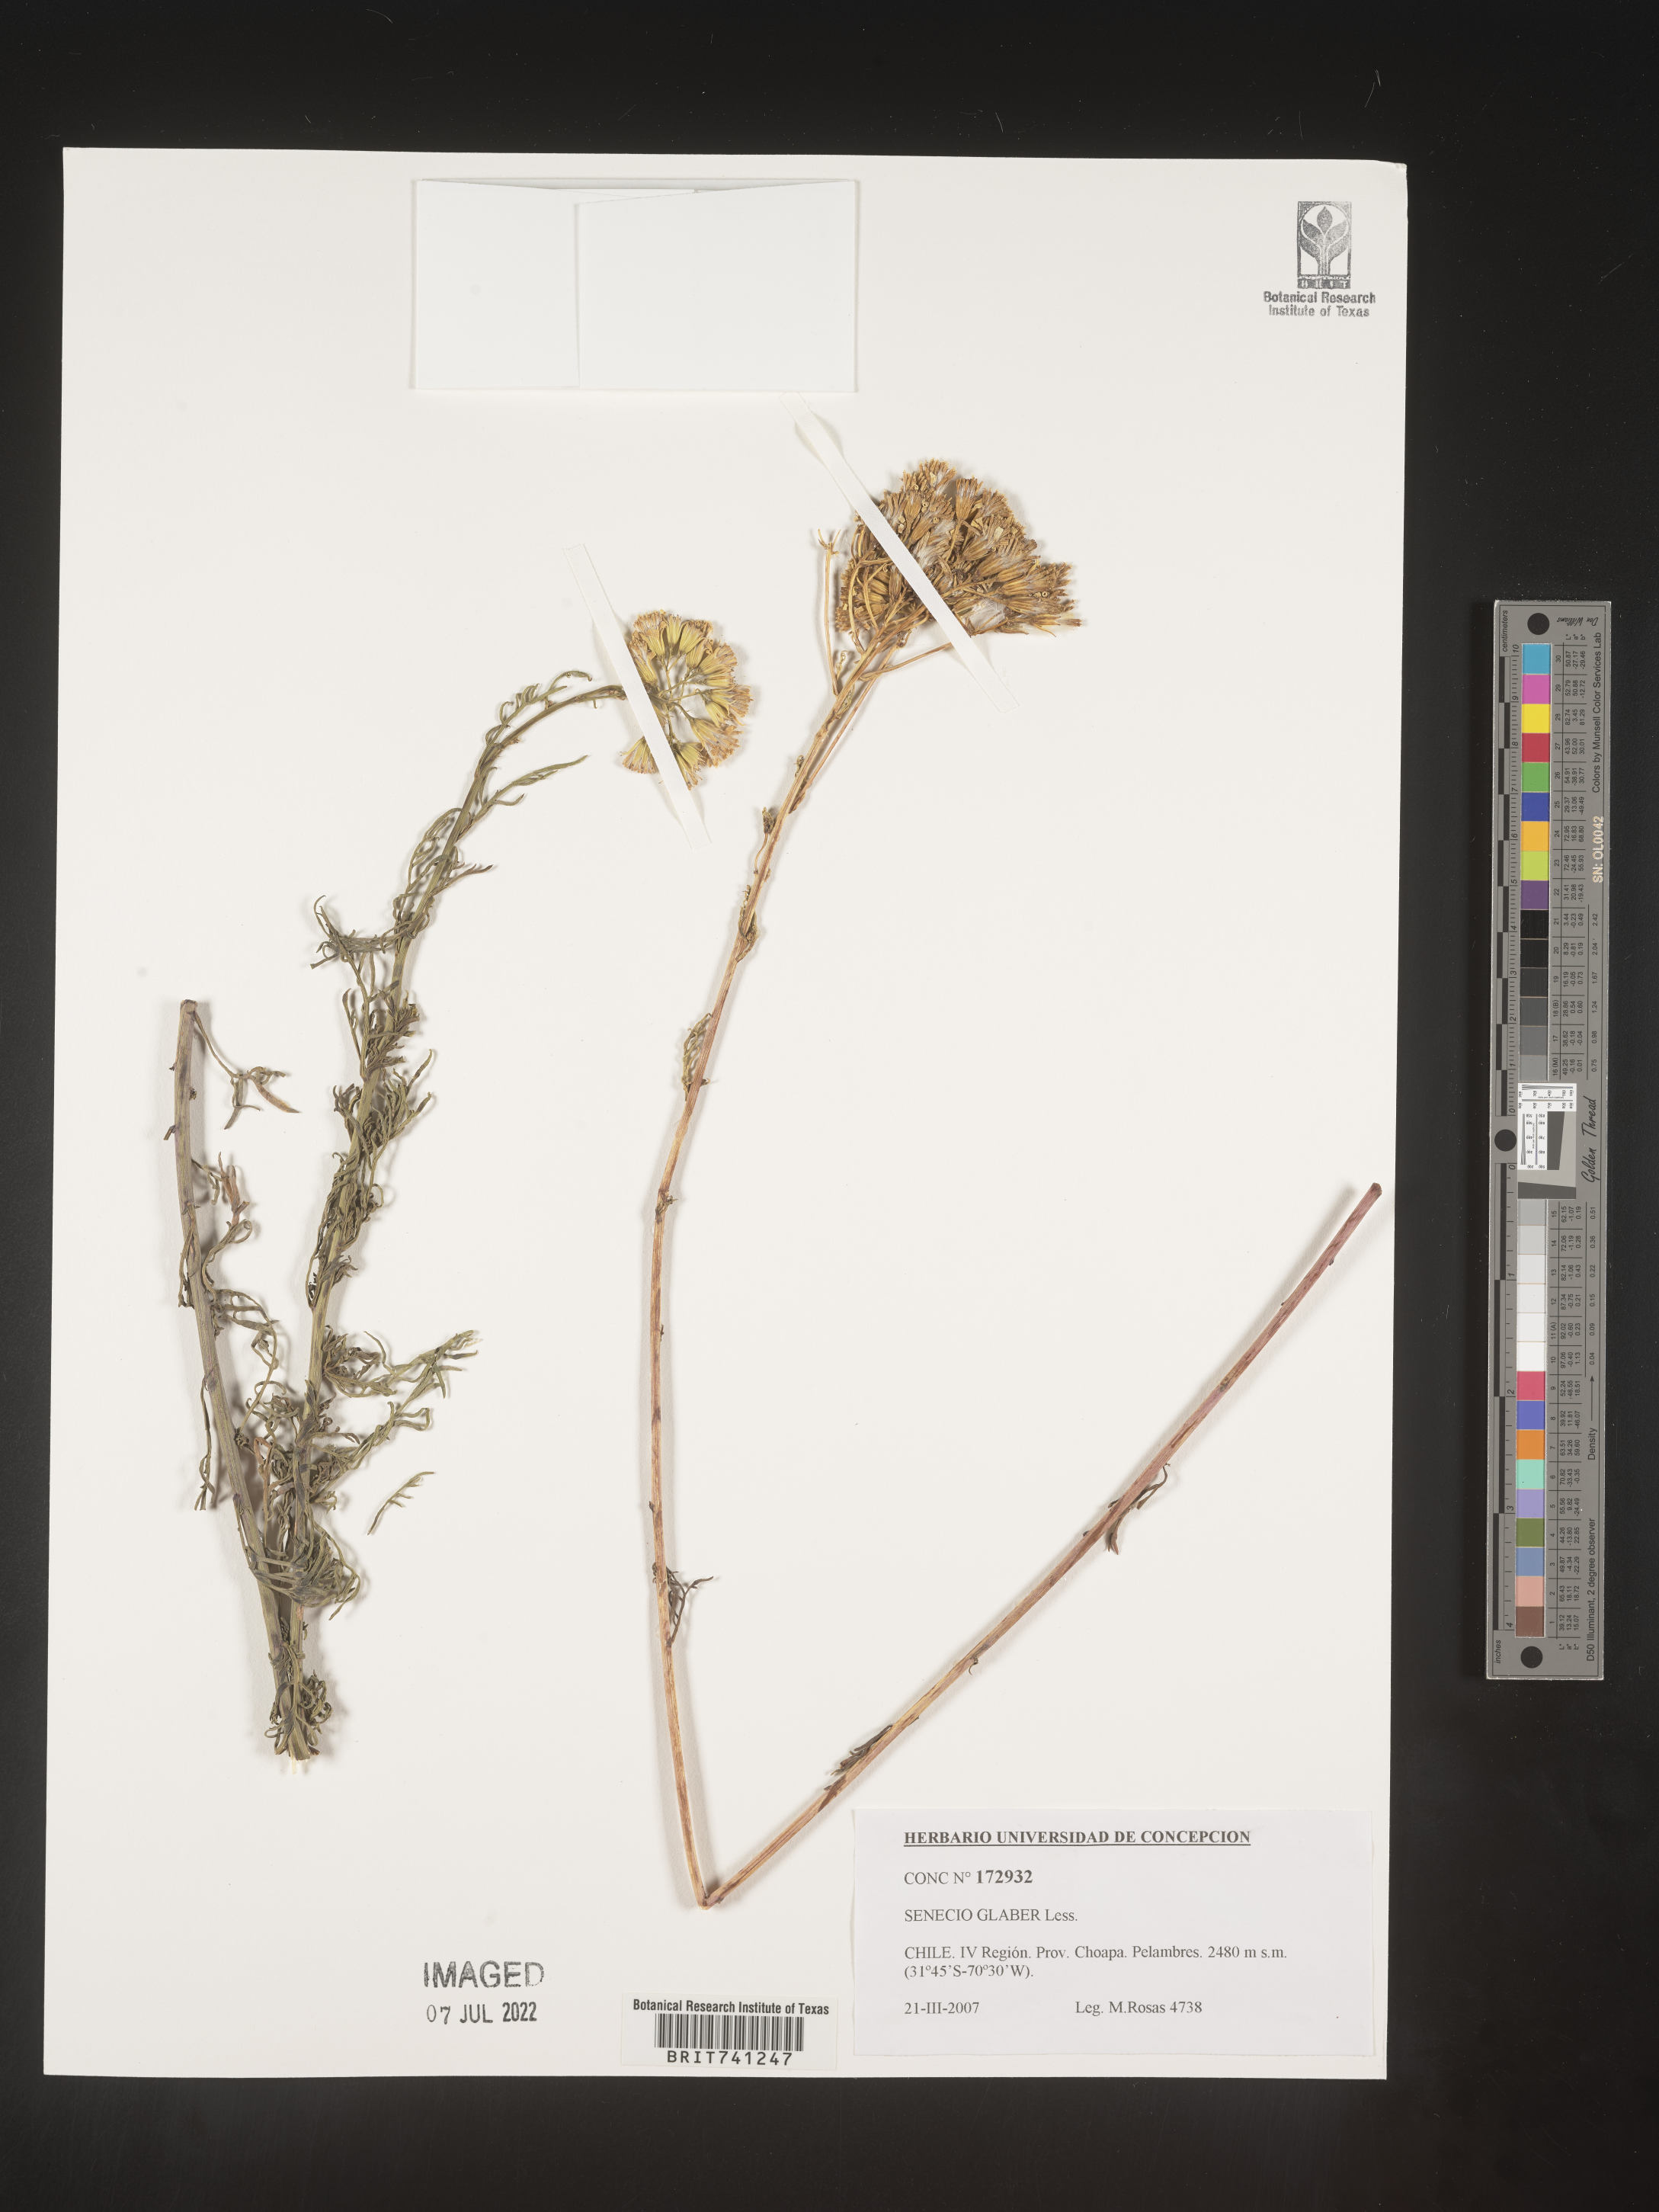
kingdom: Plantae
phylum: Tracheophyta
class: Magnoliopsida
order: Asterales
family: Asteraceae
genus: Senecio
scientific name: Senecio
